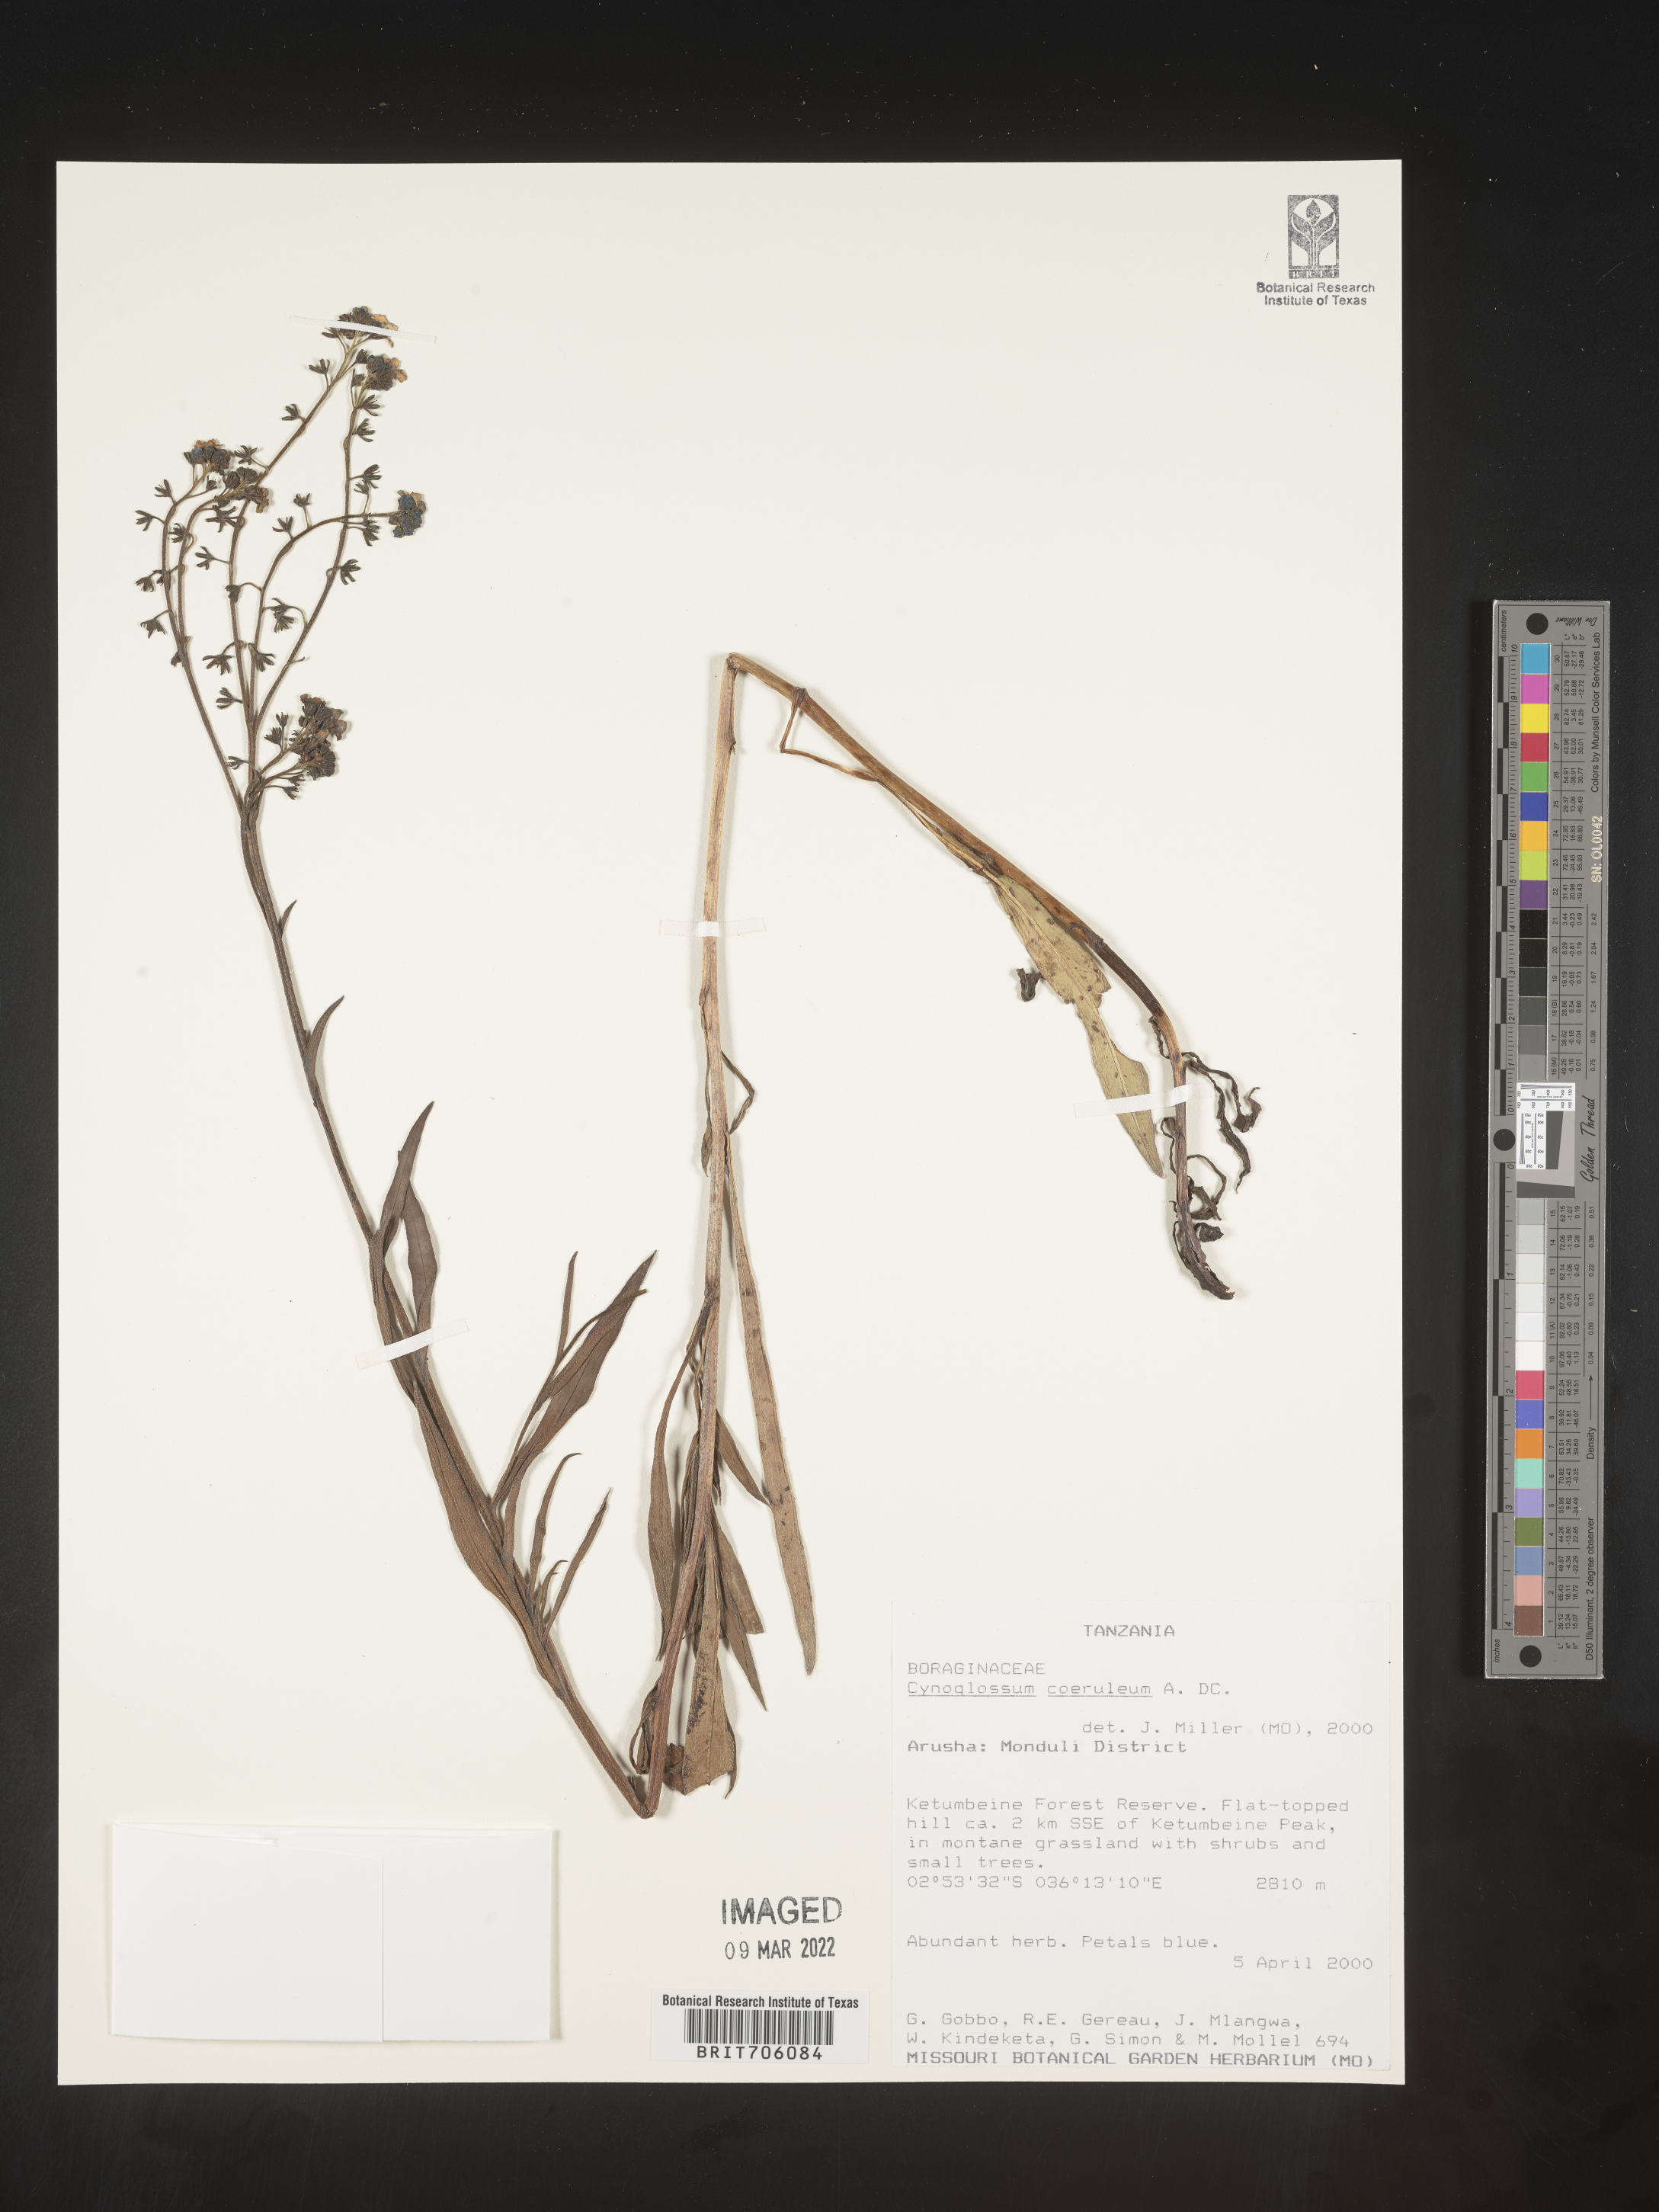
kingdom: Plantae
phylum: Tracheophyta
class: Magnoliopsida
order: Boraginales
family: Boraginaceae
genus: Cynoglossum
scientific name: Cynoglossum
